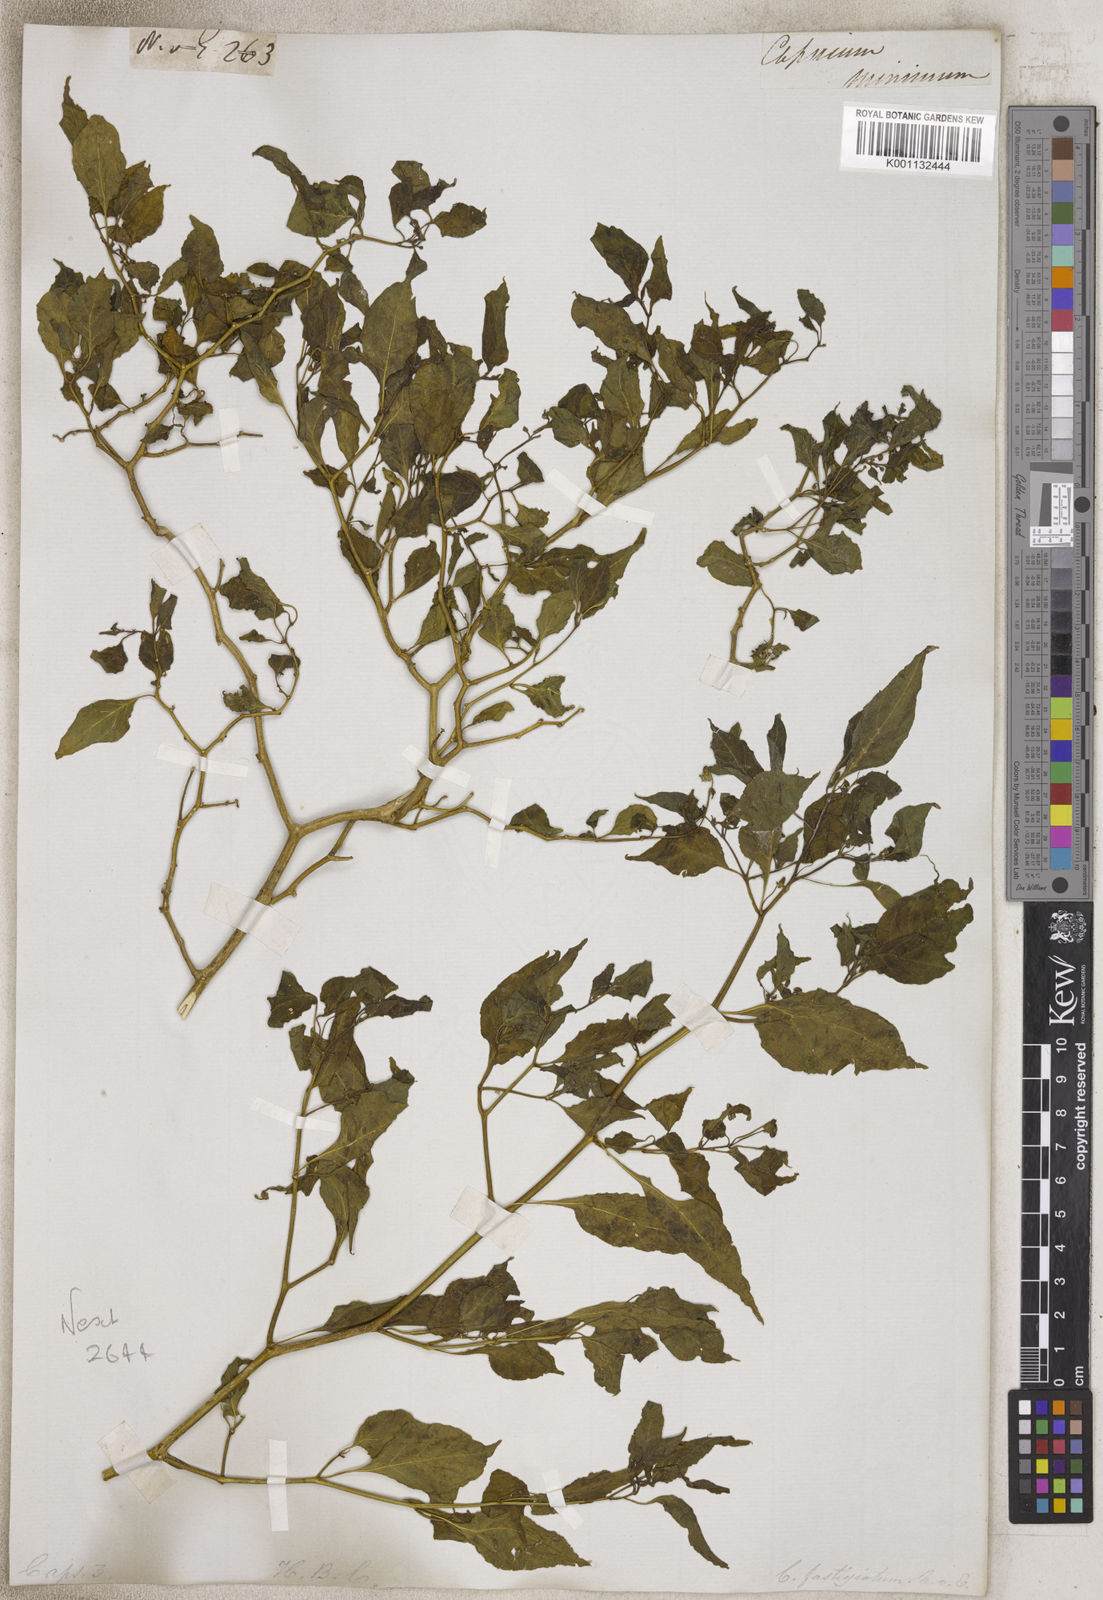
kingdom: Plantae
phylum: Tracheophyta
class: Magnoliopsida
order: Solanales
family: Solanaceae
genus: Capsicum
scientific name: Capsicum
